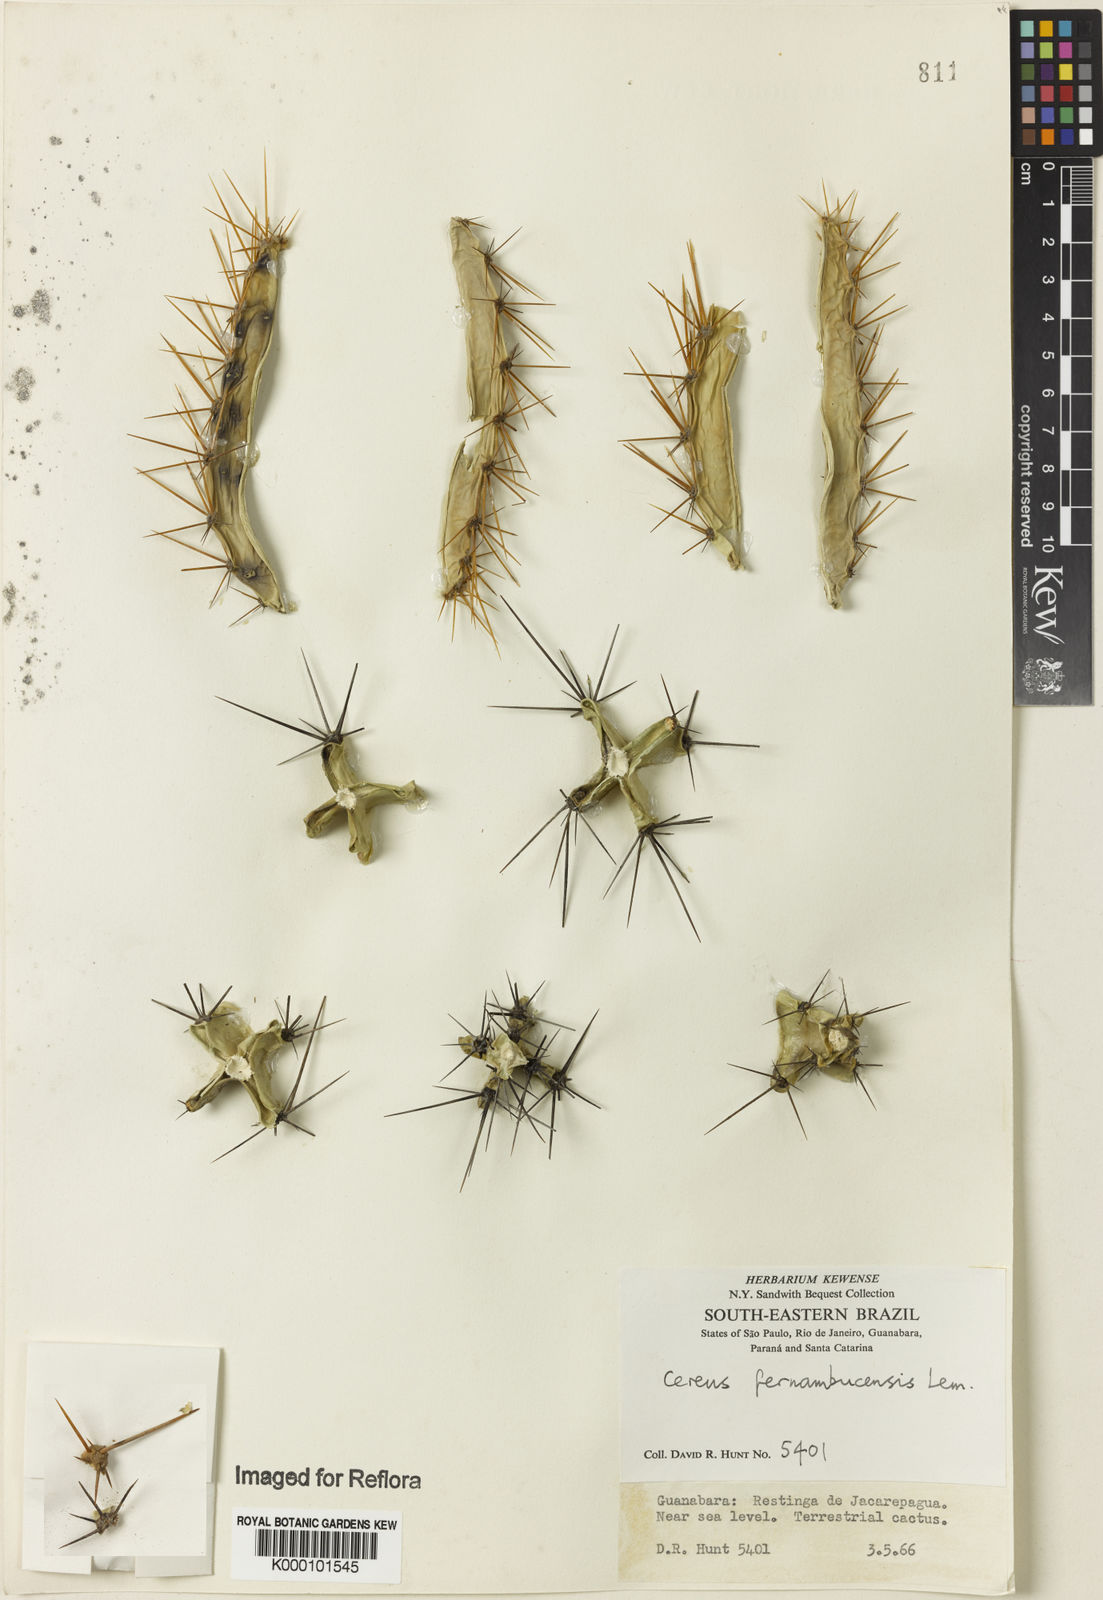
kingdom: Plantae
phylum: Tracheophyta
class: Magnoliopsida
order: Caryophyllales
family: Cactaceae
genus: Cereus
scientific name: Cereus
